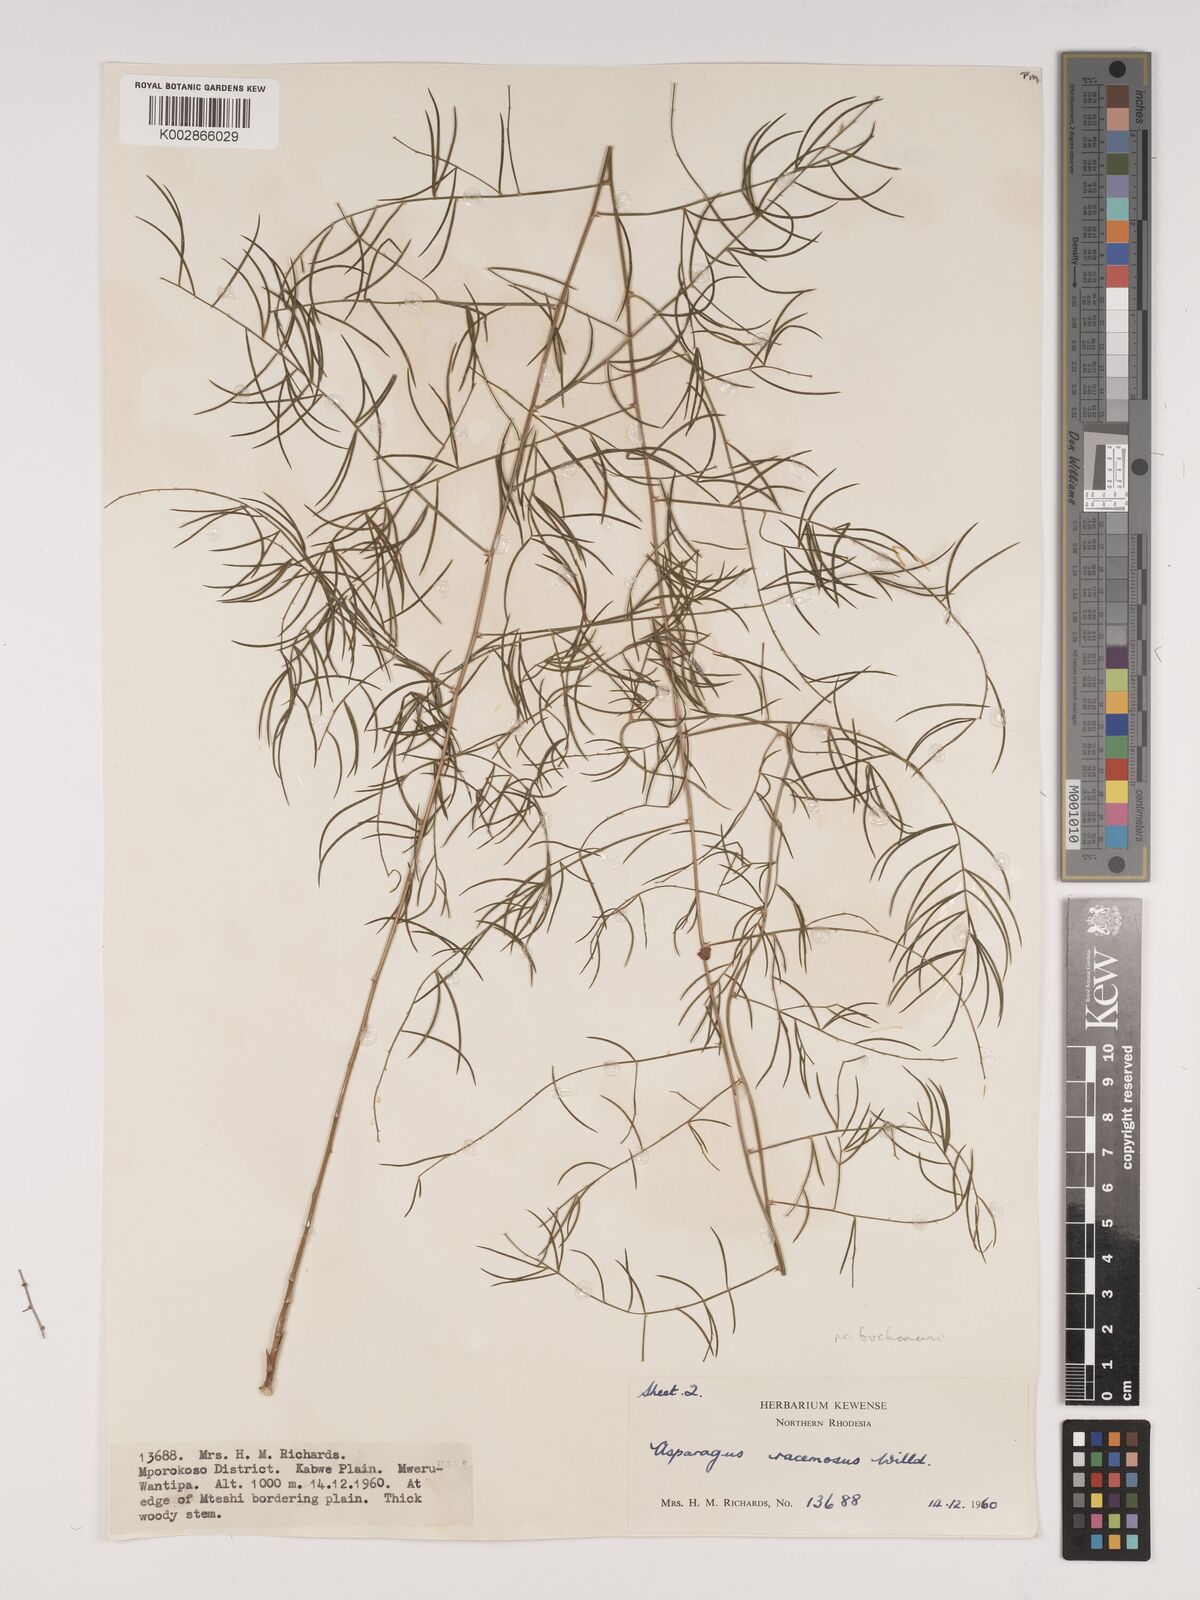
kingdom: Plantae
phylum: Tracheophyta
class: Liliopsida
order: Asparagales
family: Asparagaceae
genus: Asparagus
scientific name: Asparagus buchananii
